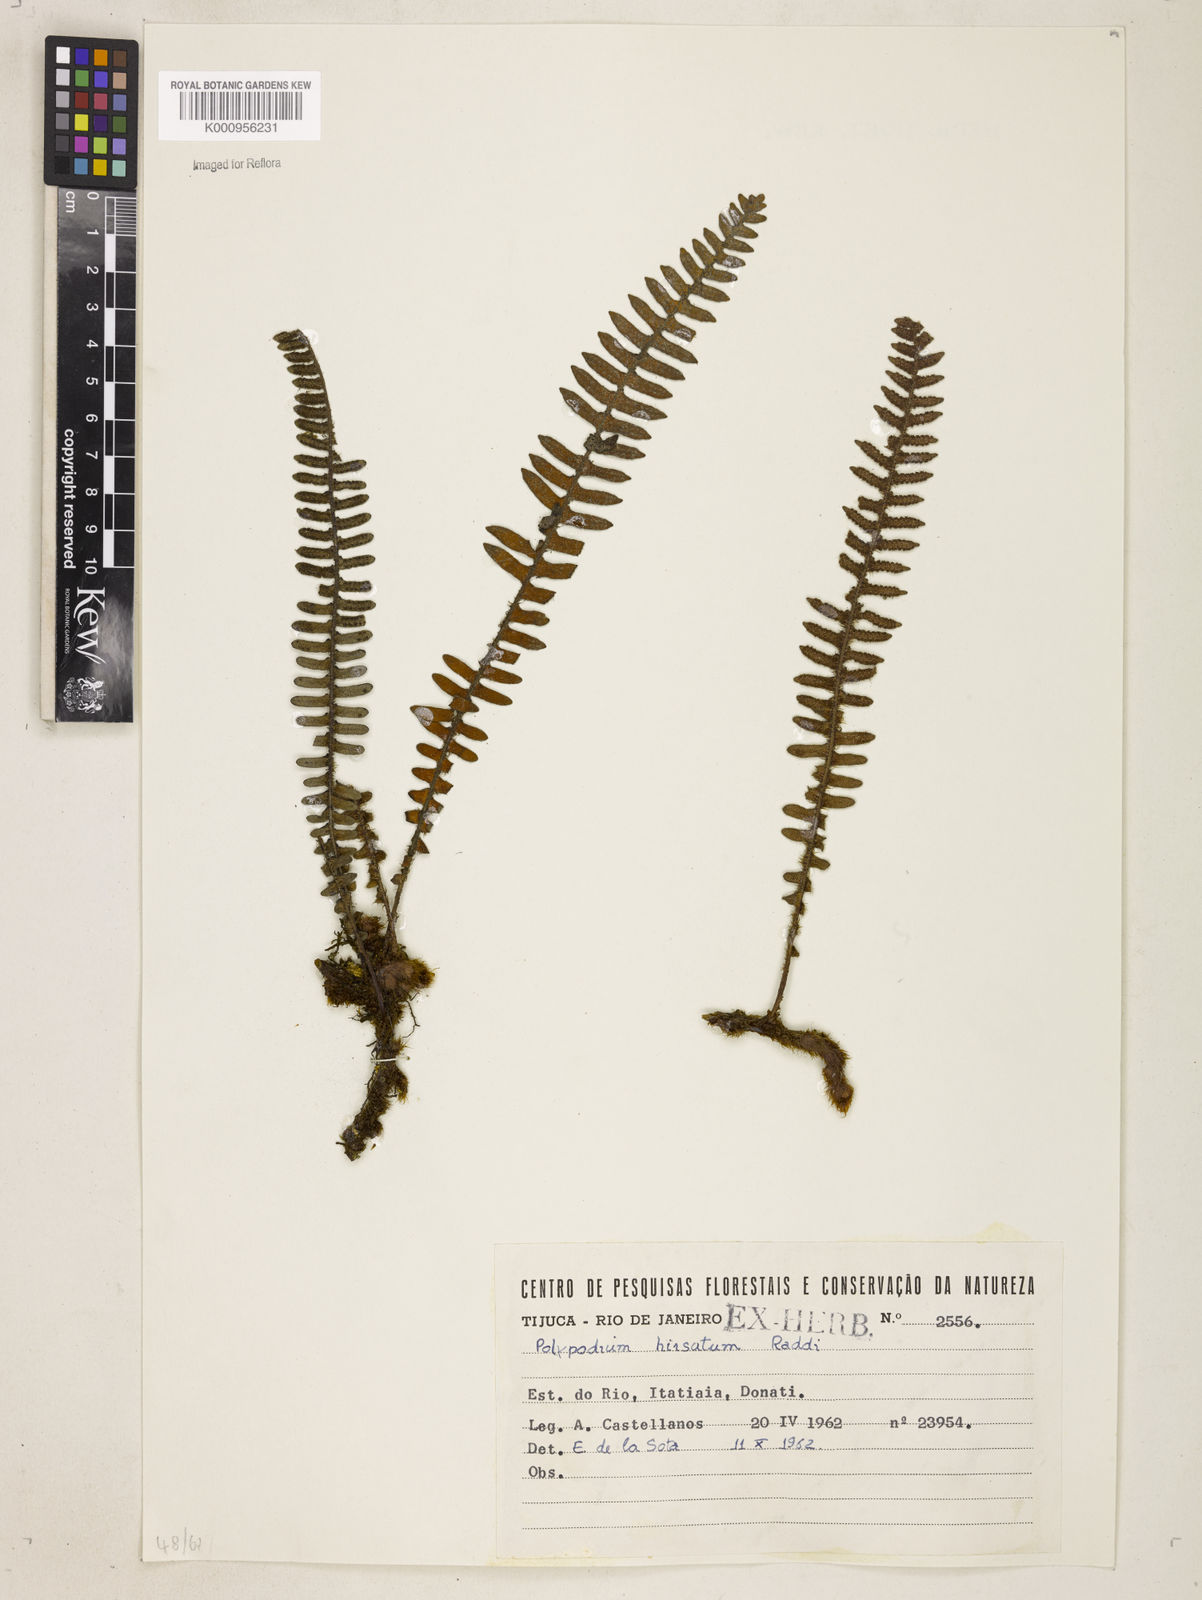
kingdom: Plantae
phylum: Tracheophyta
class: Polypodiopsida
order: Polypodiales
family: Polypodiaceae
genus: Pleopeltis
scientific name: Pleopeltis hirsutissima
